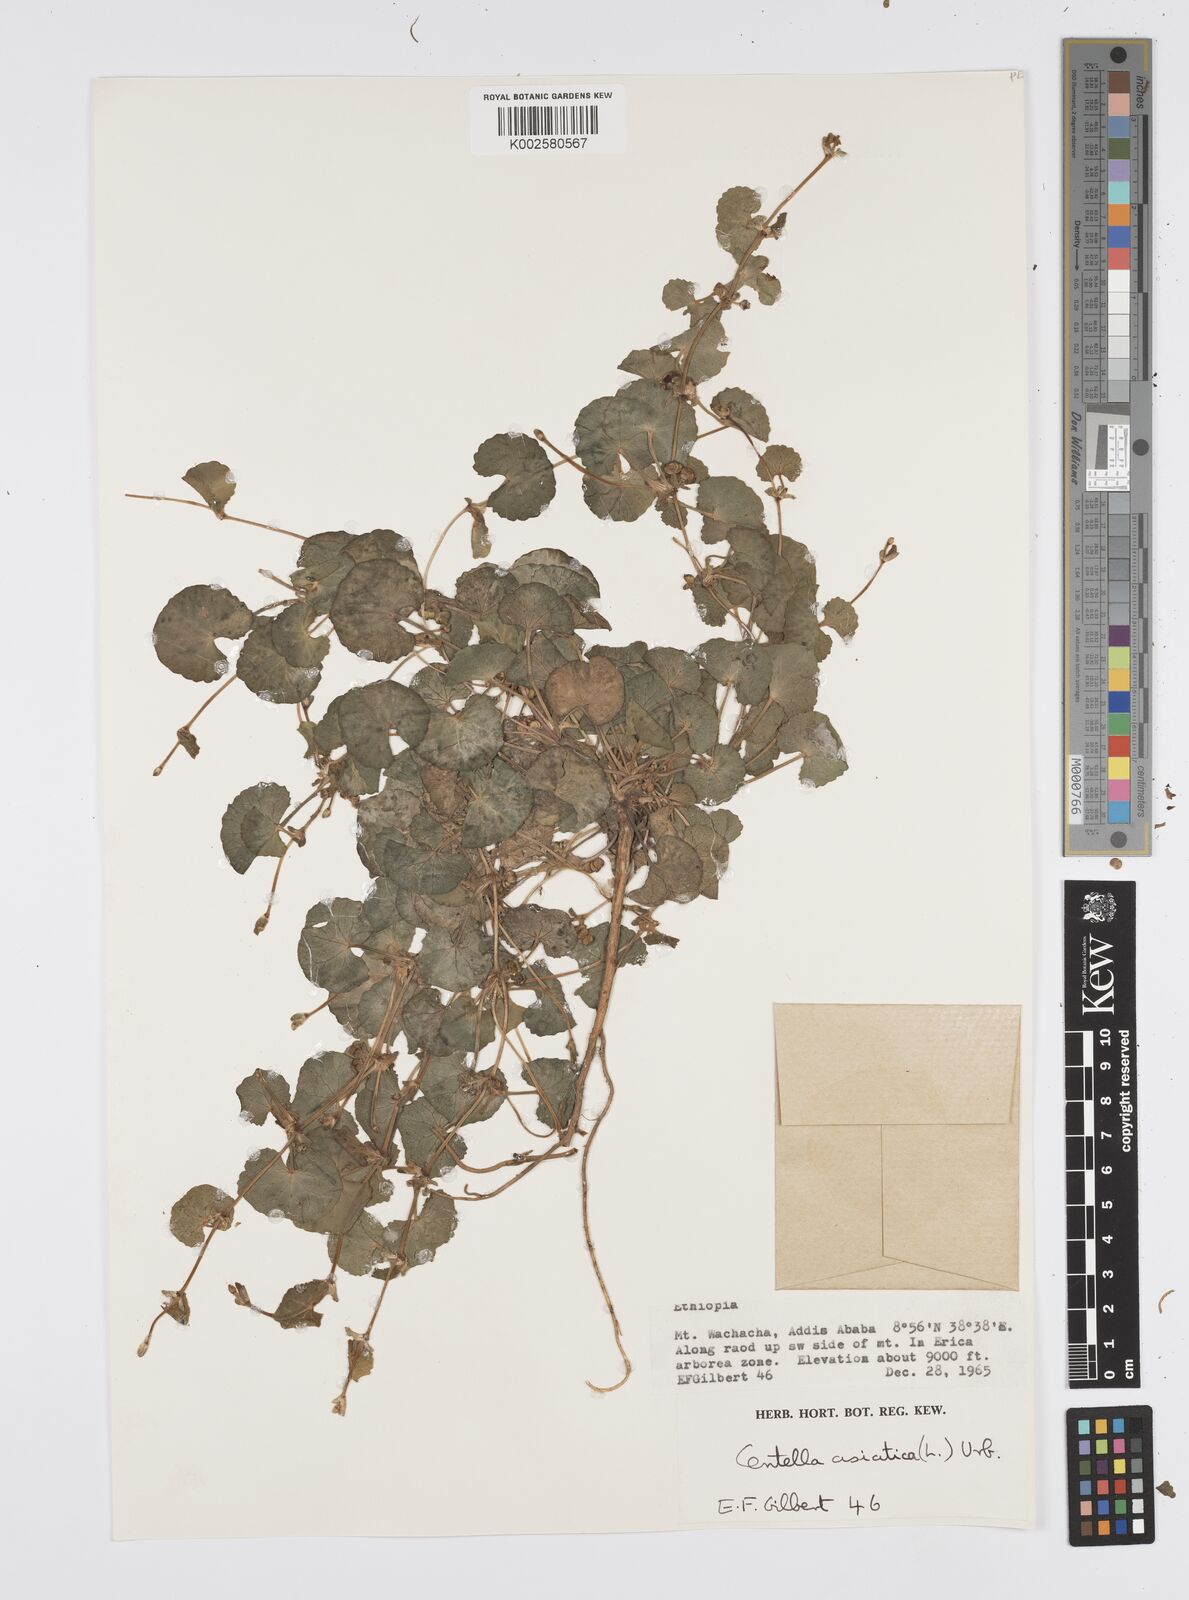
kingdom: Plantae
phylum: Tracheophyta
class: Magnoliopsida
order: Apiales
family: Apiaceae
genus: Centella
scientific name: Centella asiatica
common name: Spadeleaf
